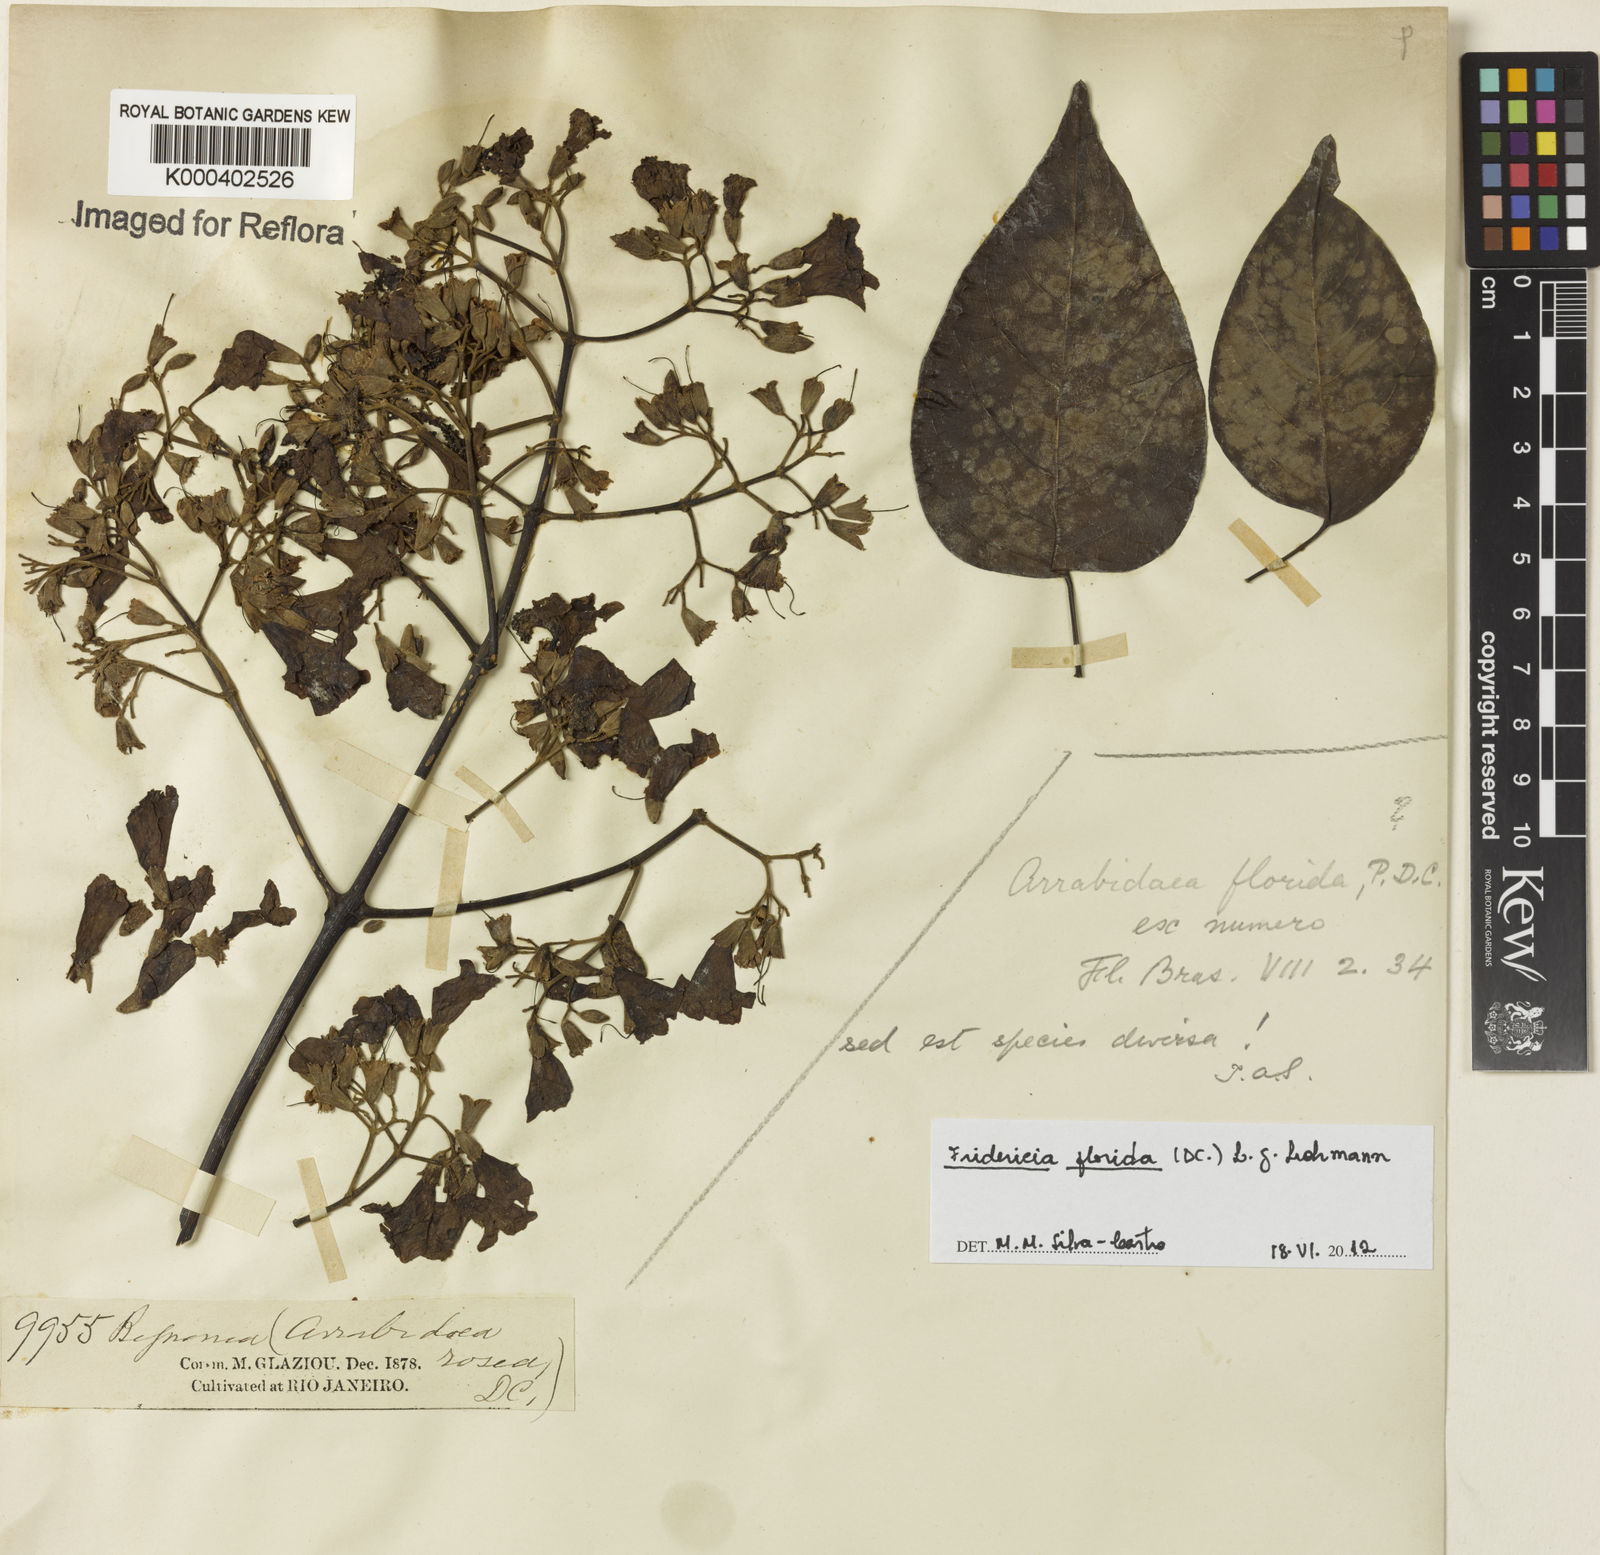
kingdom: Plantae
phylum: Tracheophyta
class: Magnoliopsida
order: Lamiales
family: Bignoniaceae
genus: Fridericia
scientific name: Fridericia florida
